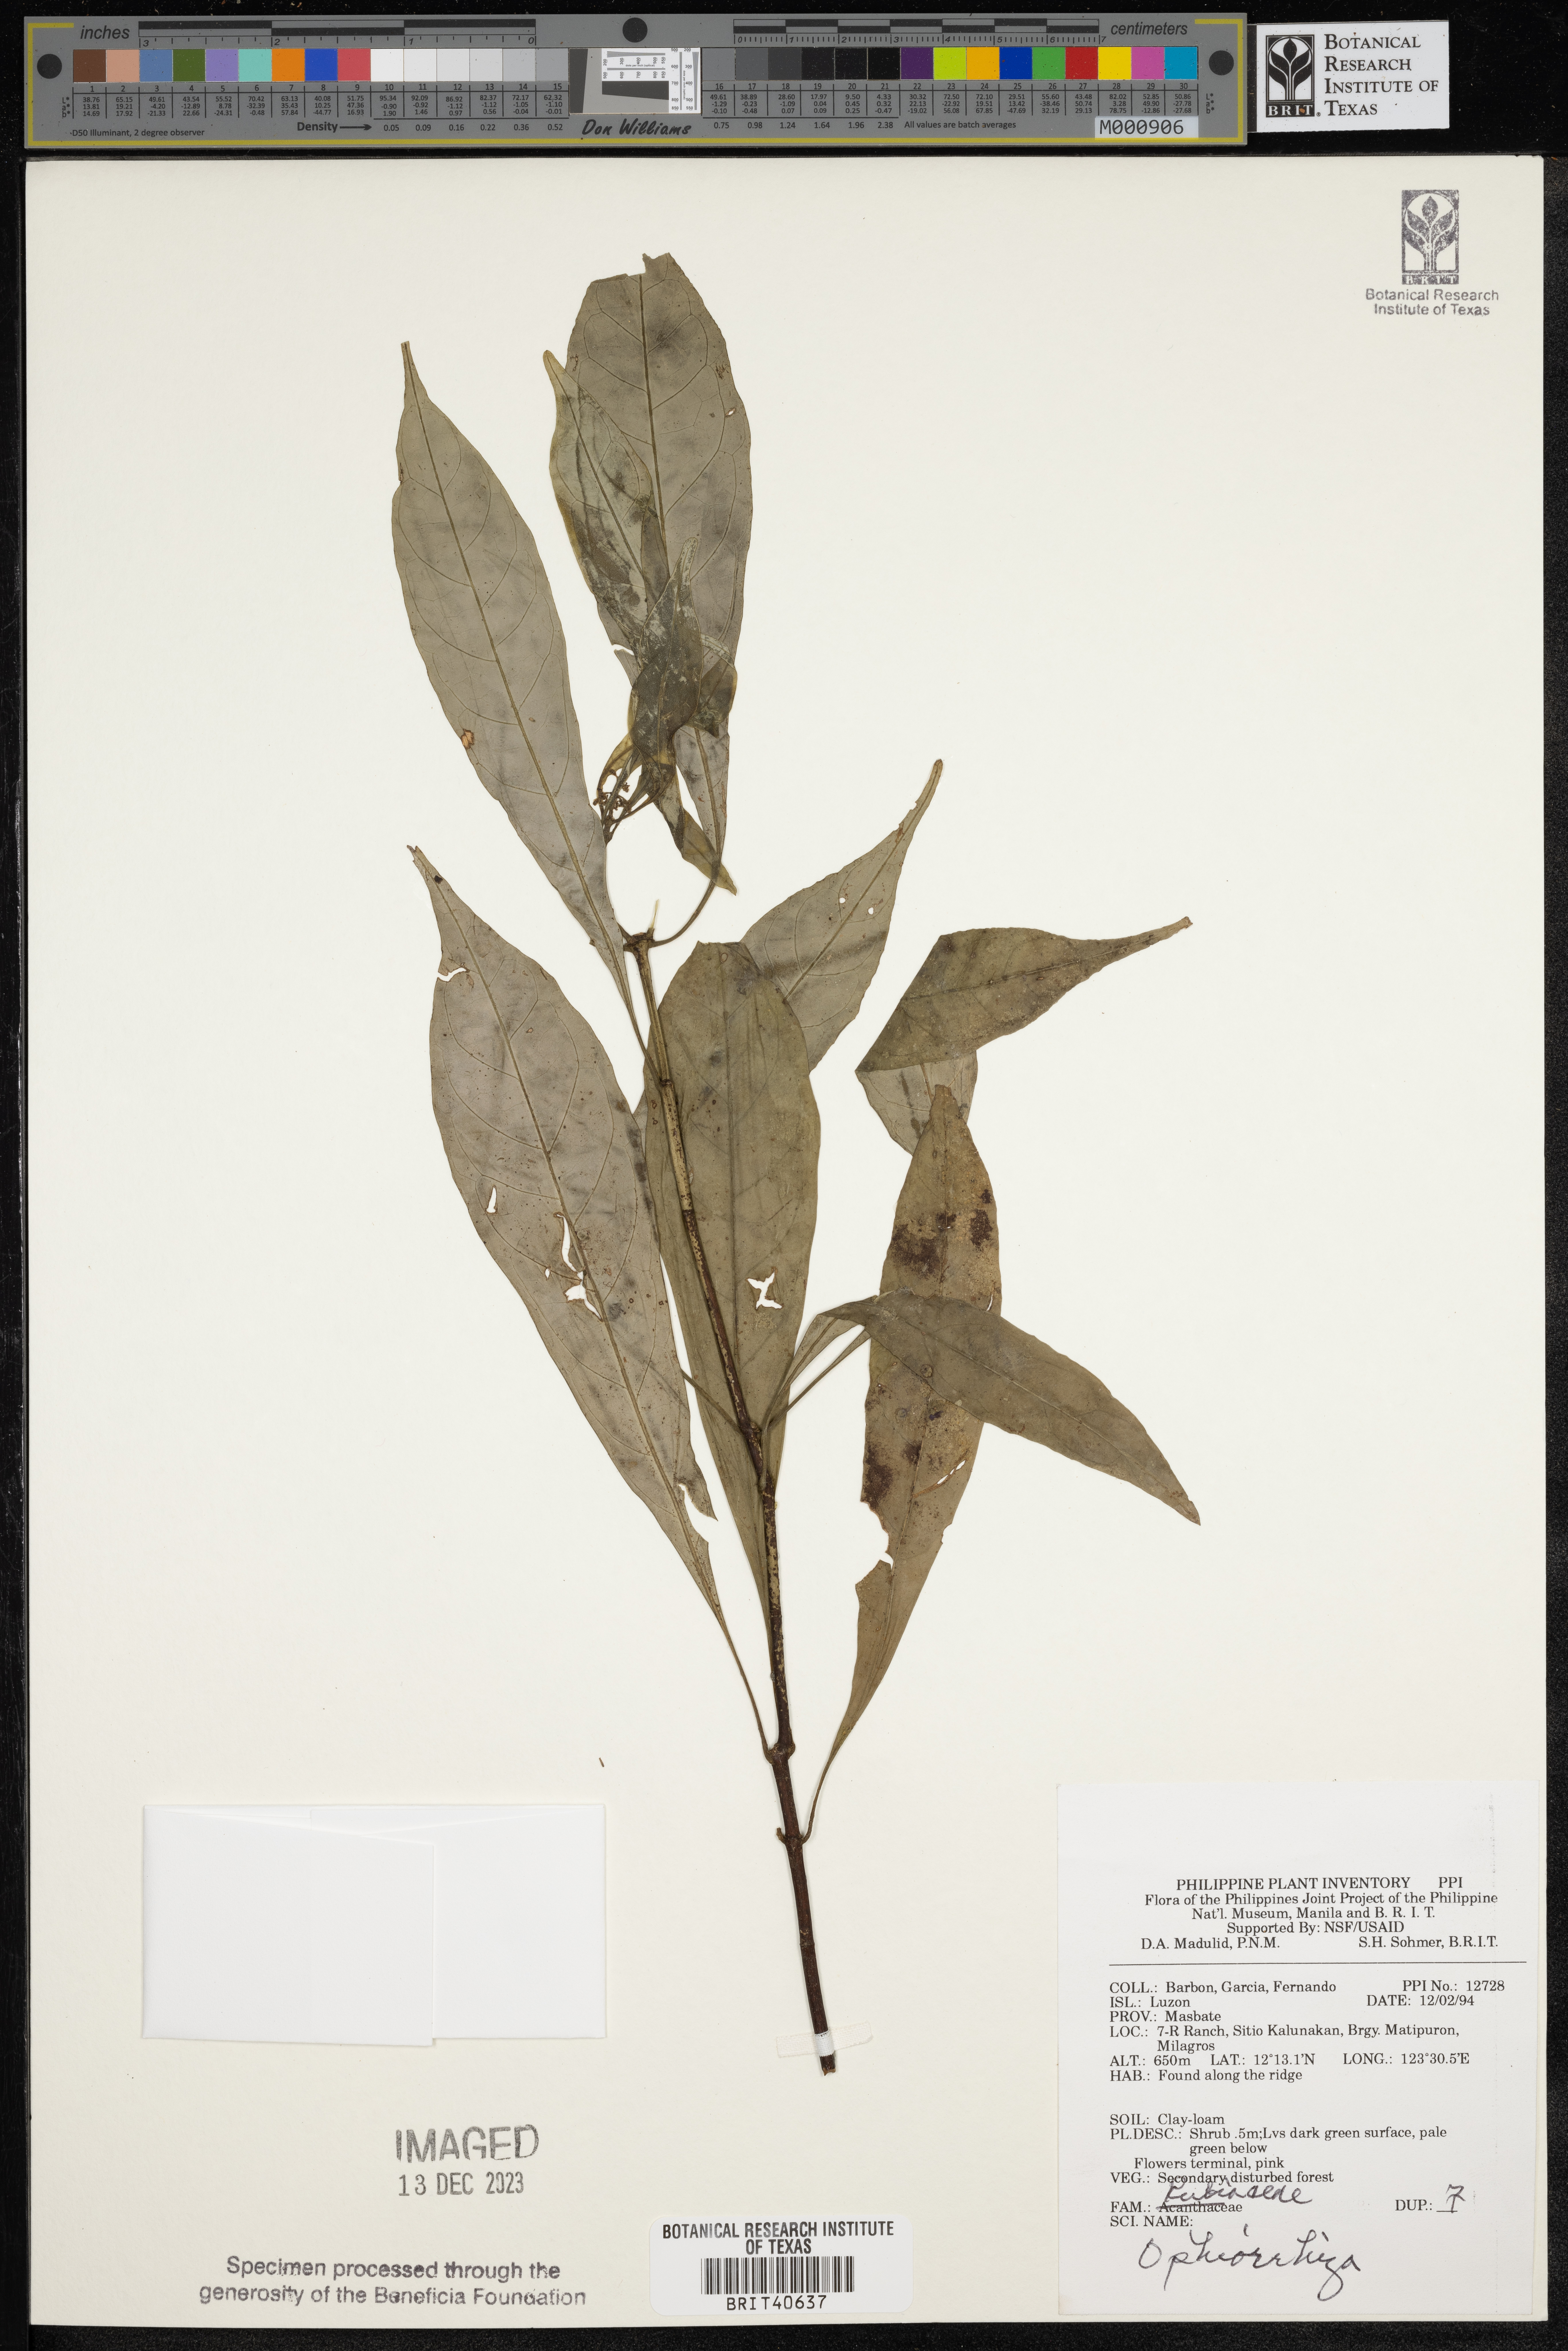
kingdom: Plantae
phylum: Tracheophyta
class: Magnoliopsida
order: Gentianales
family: Rubiaceae
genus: Ophiorrhiza
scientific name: Ophiorrhiza
